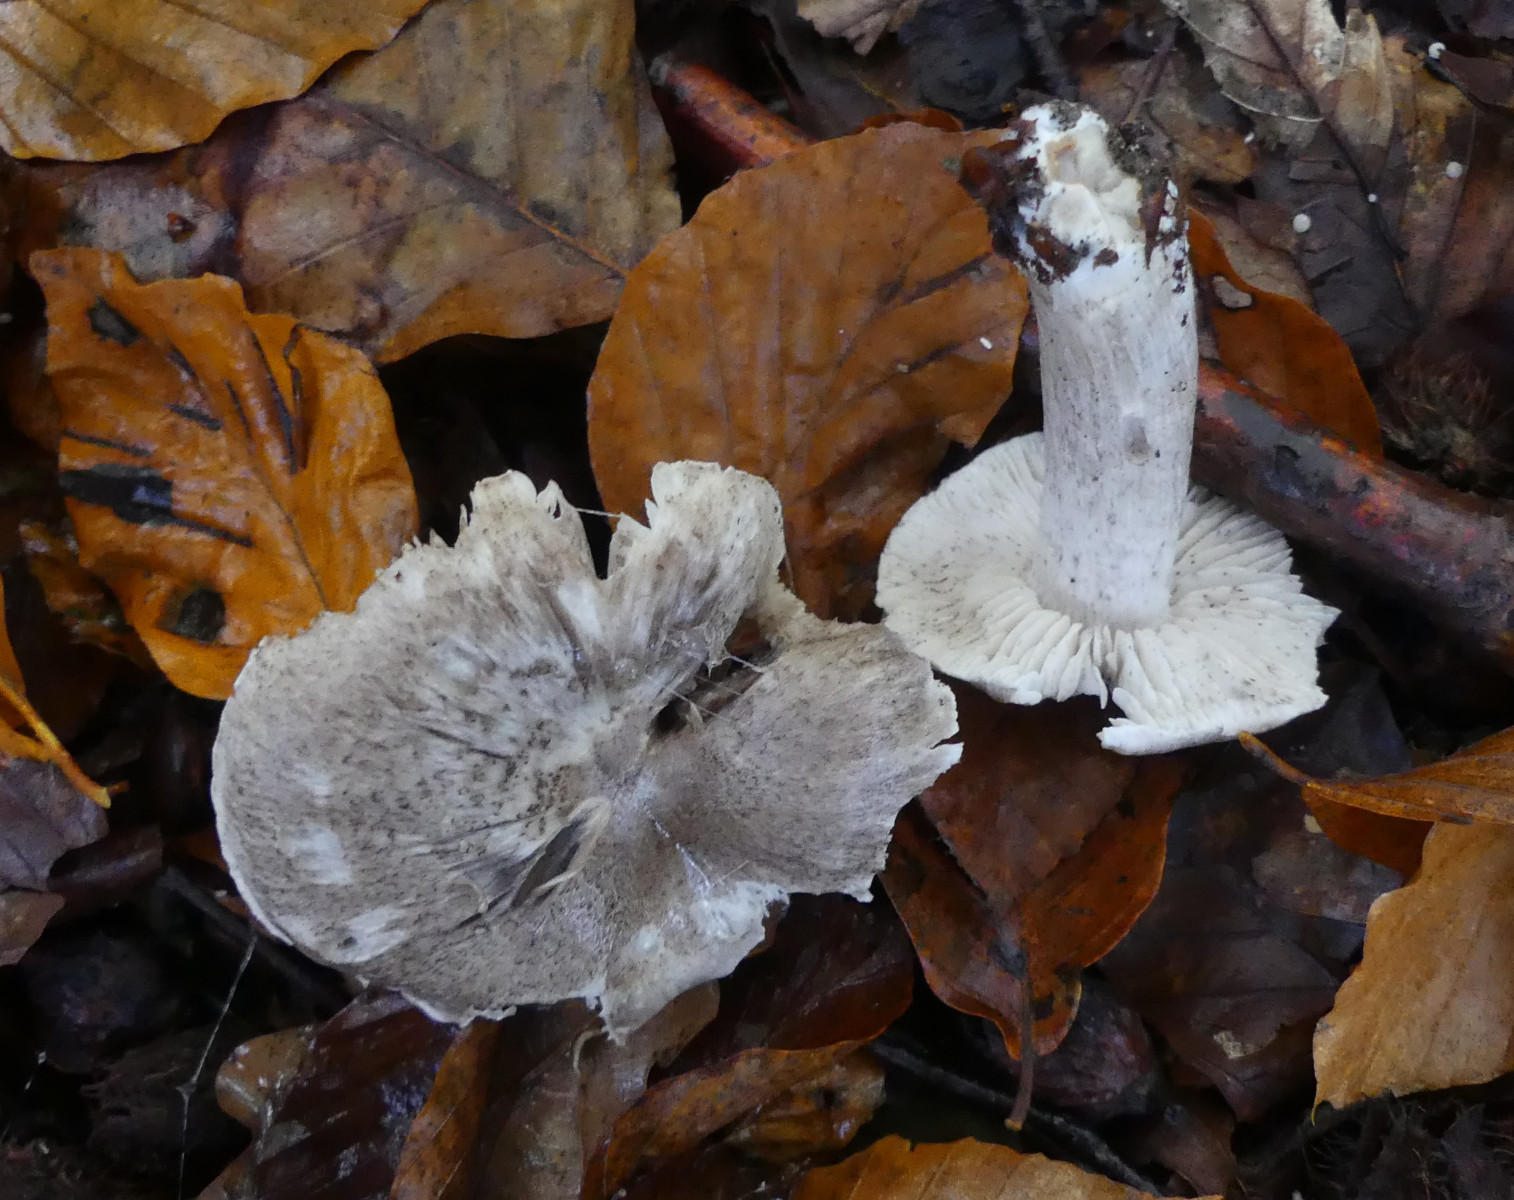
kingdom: Fungi
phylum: Basidiomycota
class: Agaricomycetes
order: Agaricales
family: Tricholomataceae
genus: Tricholoma
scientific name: Tricholoma sciodes
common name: stribet ridderhat
